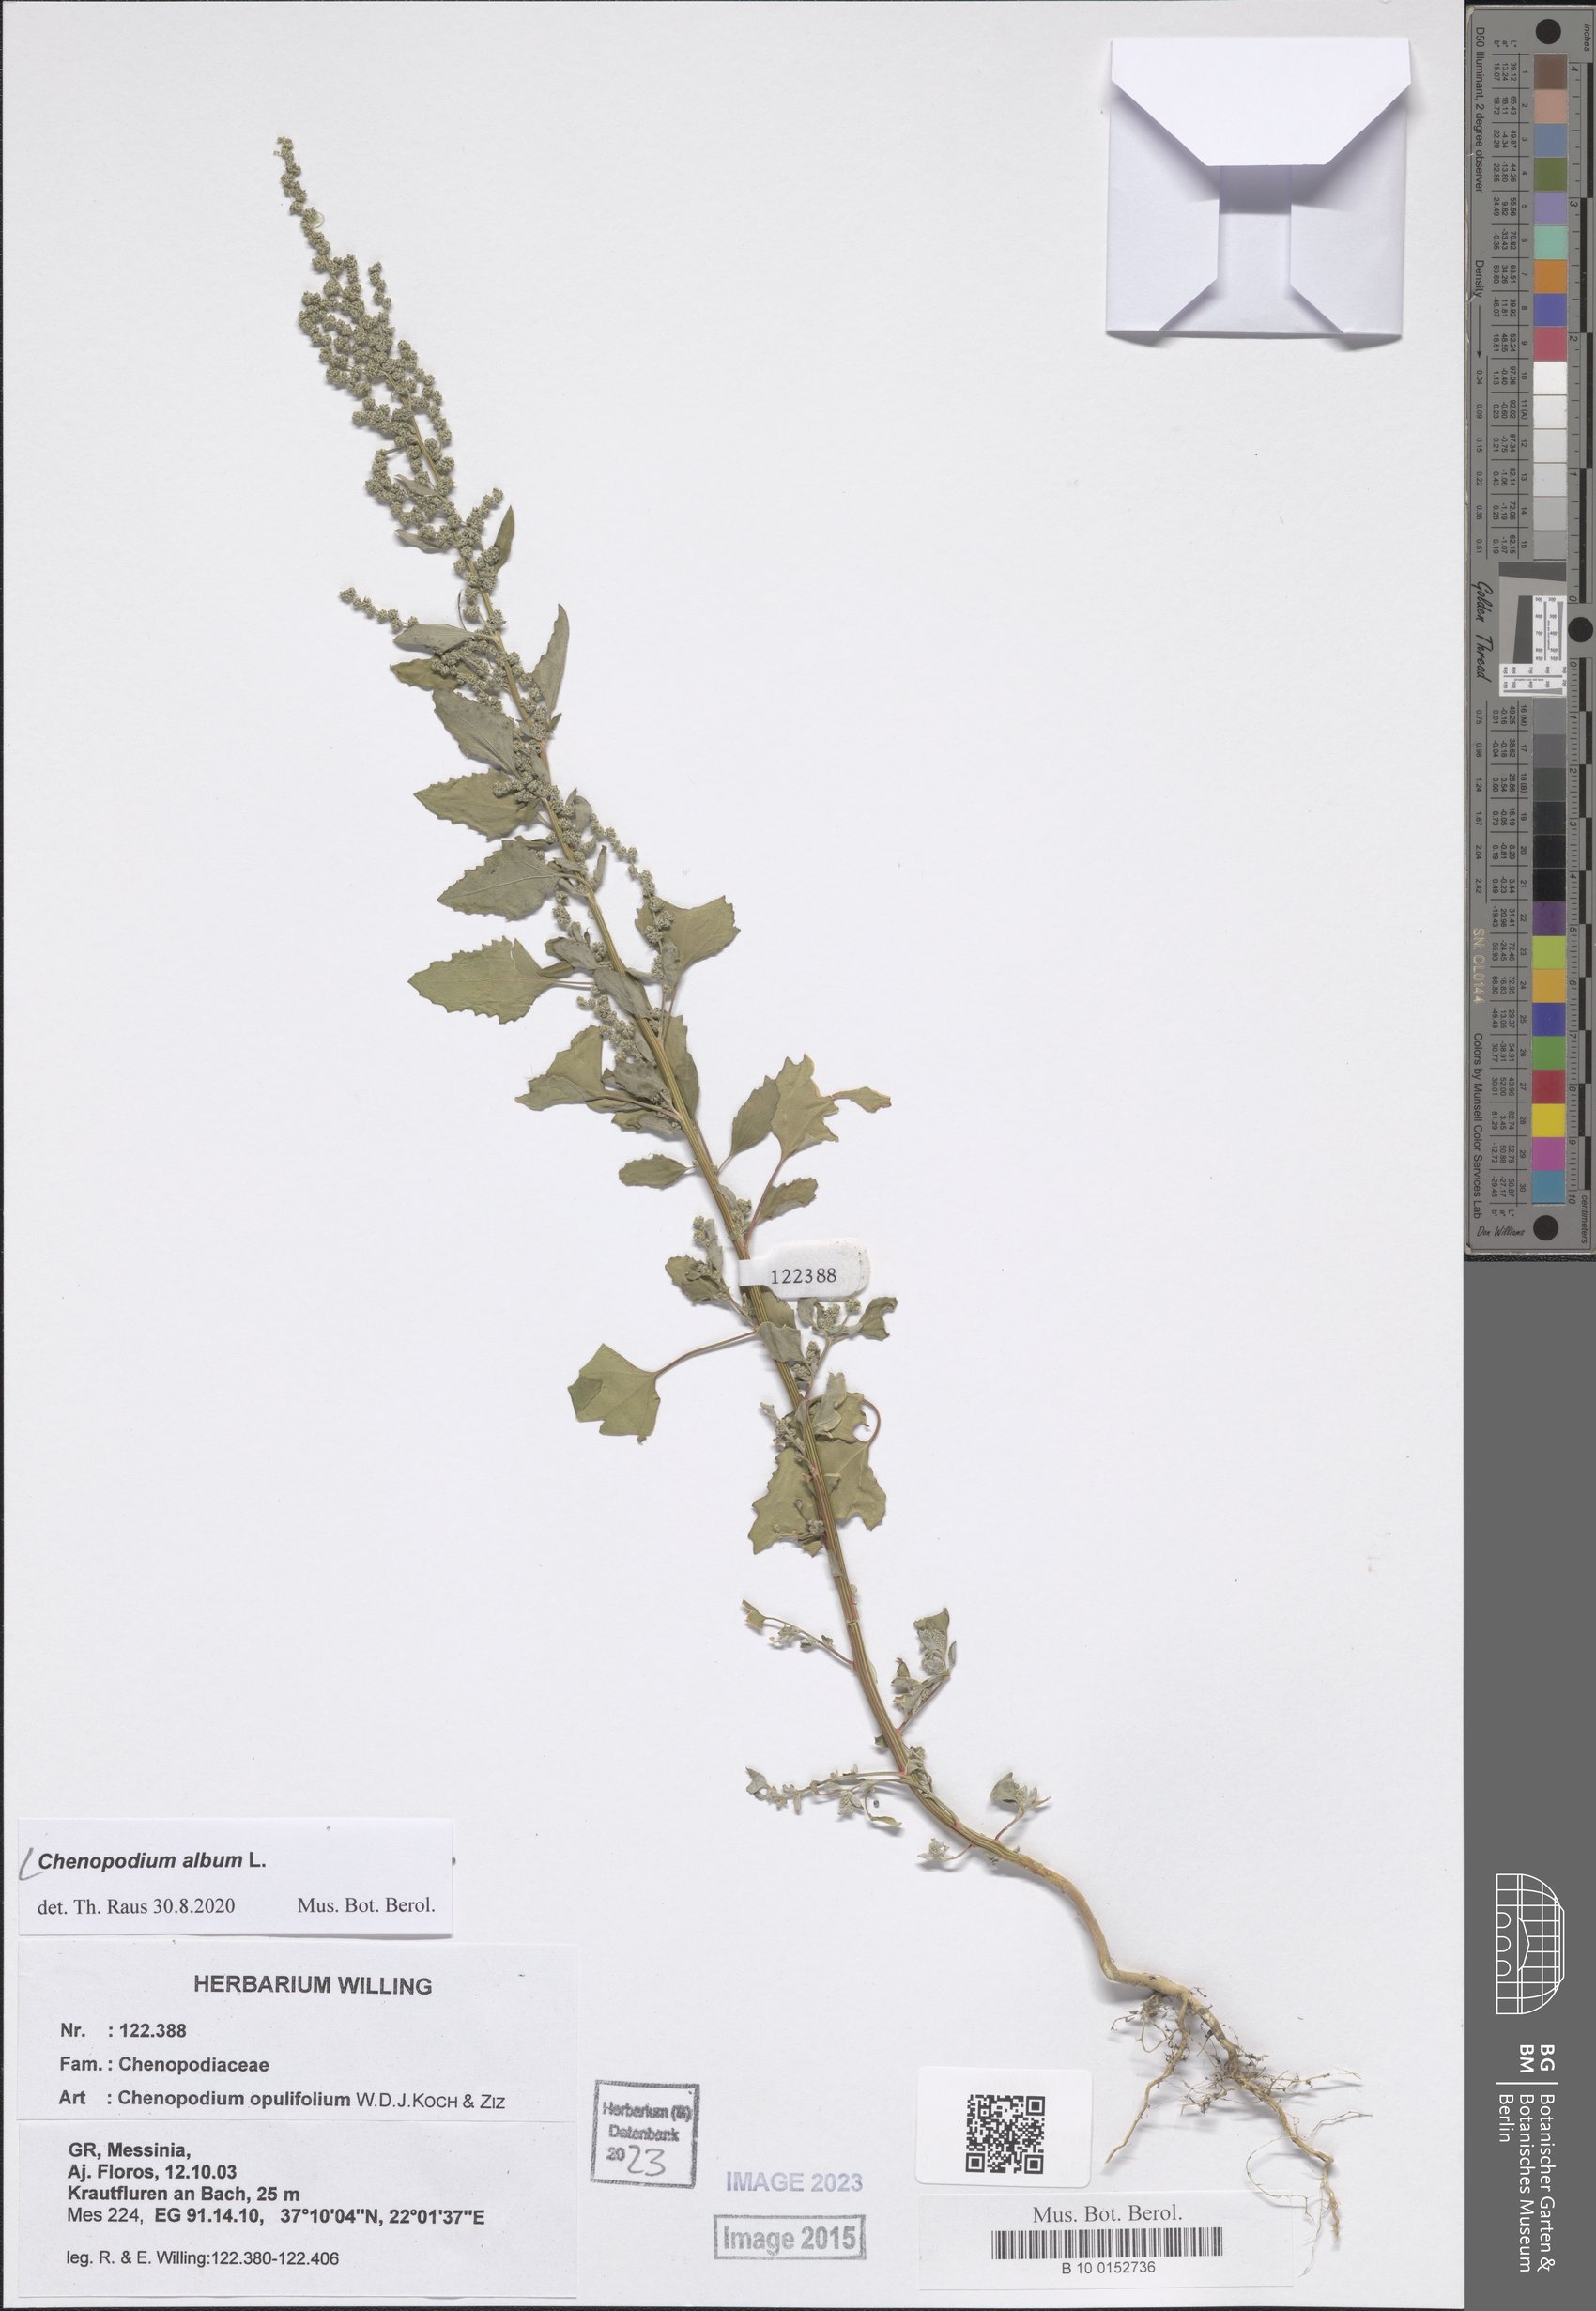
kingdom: Plantae
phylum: Tracheophyta
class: Magnoliopsida
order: Caryophyllales
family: Amaranthaceae
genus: Chenopodium
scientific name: Chenopodium album
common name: Fat-hen
